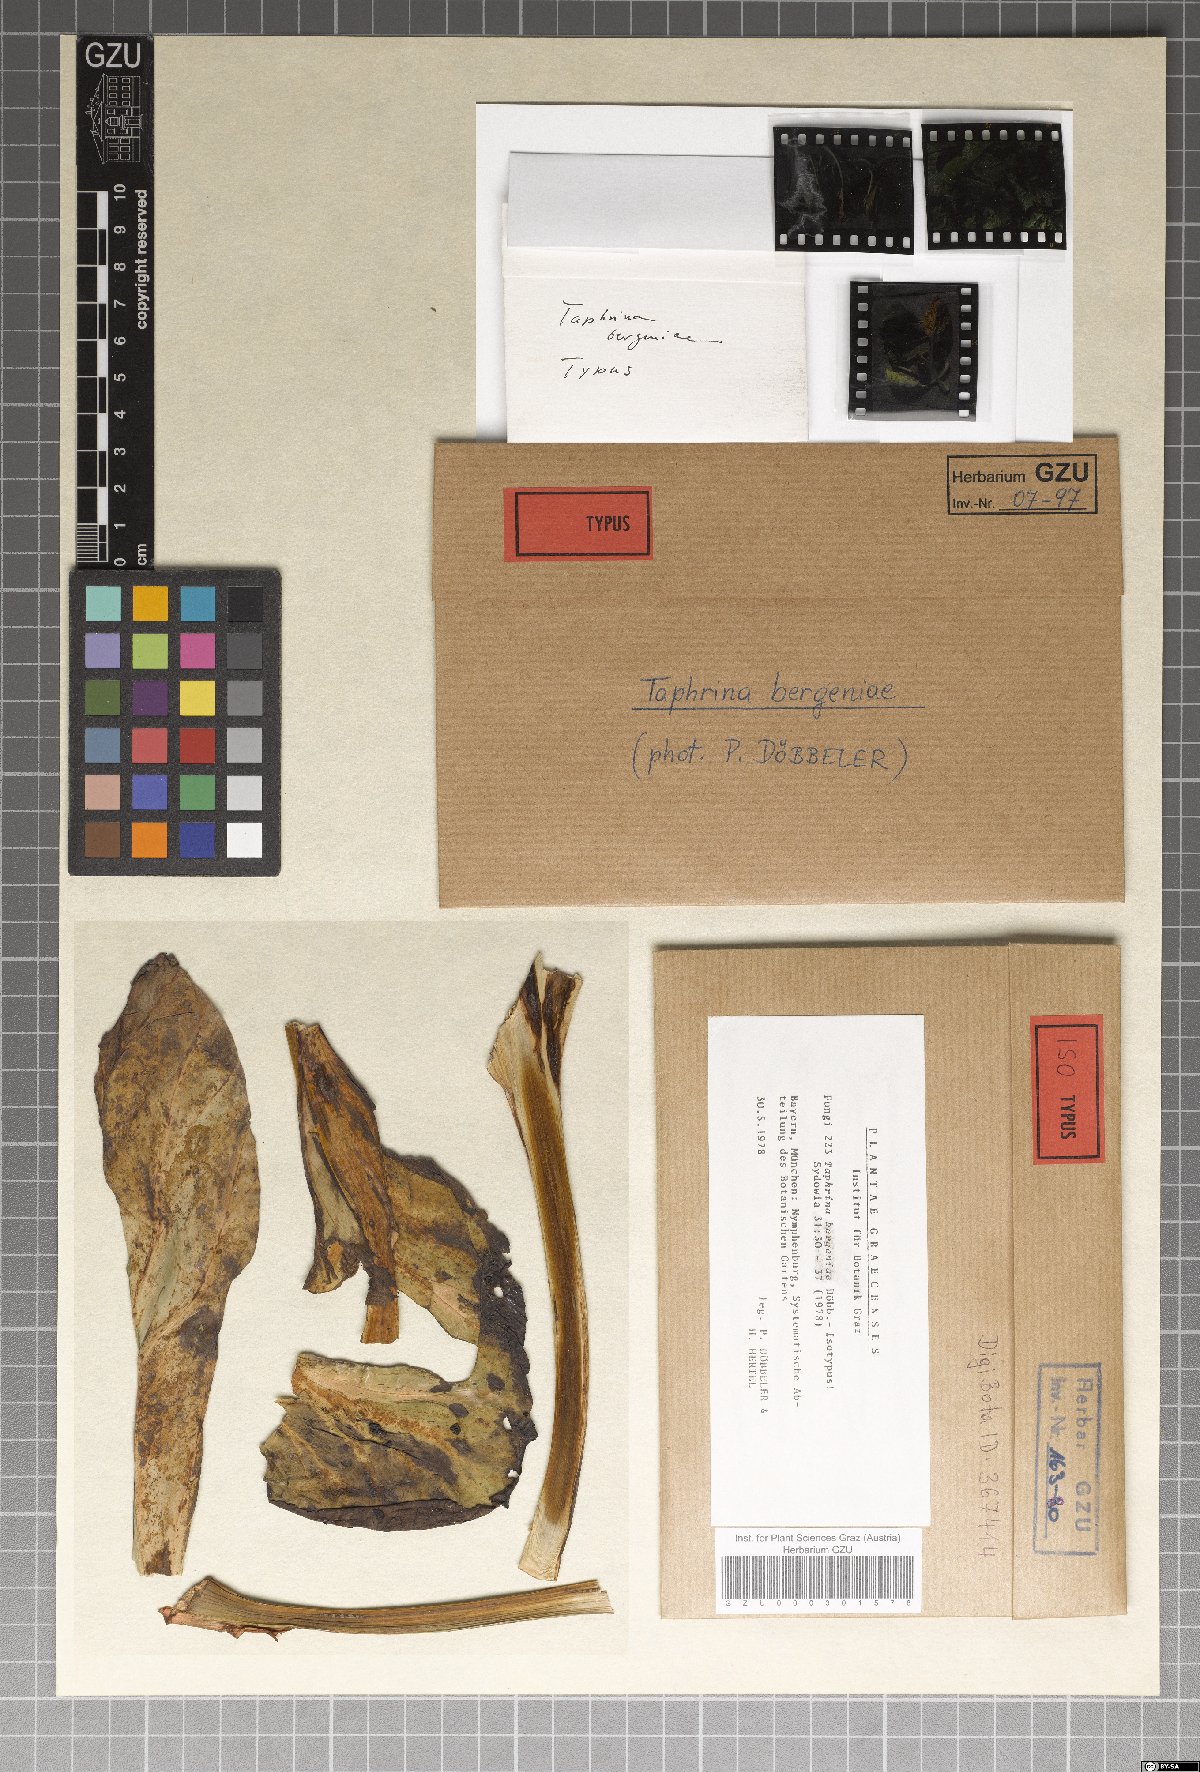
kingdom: Fungi
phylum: Ascomycota
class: Taphrinomycetes
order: Taphrinales
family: Taphrinaceae
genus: Taphrina
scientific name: Taphrina bergeniae
